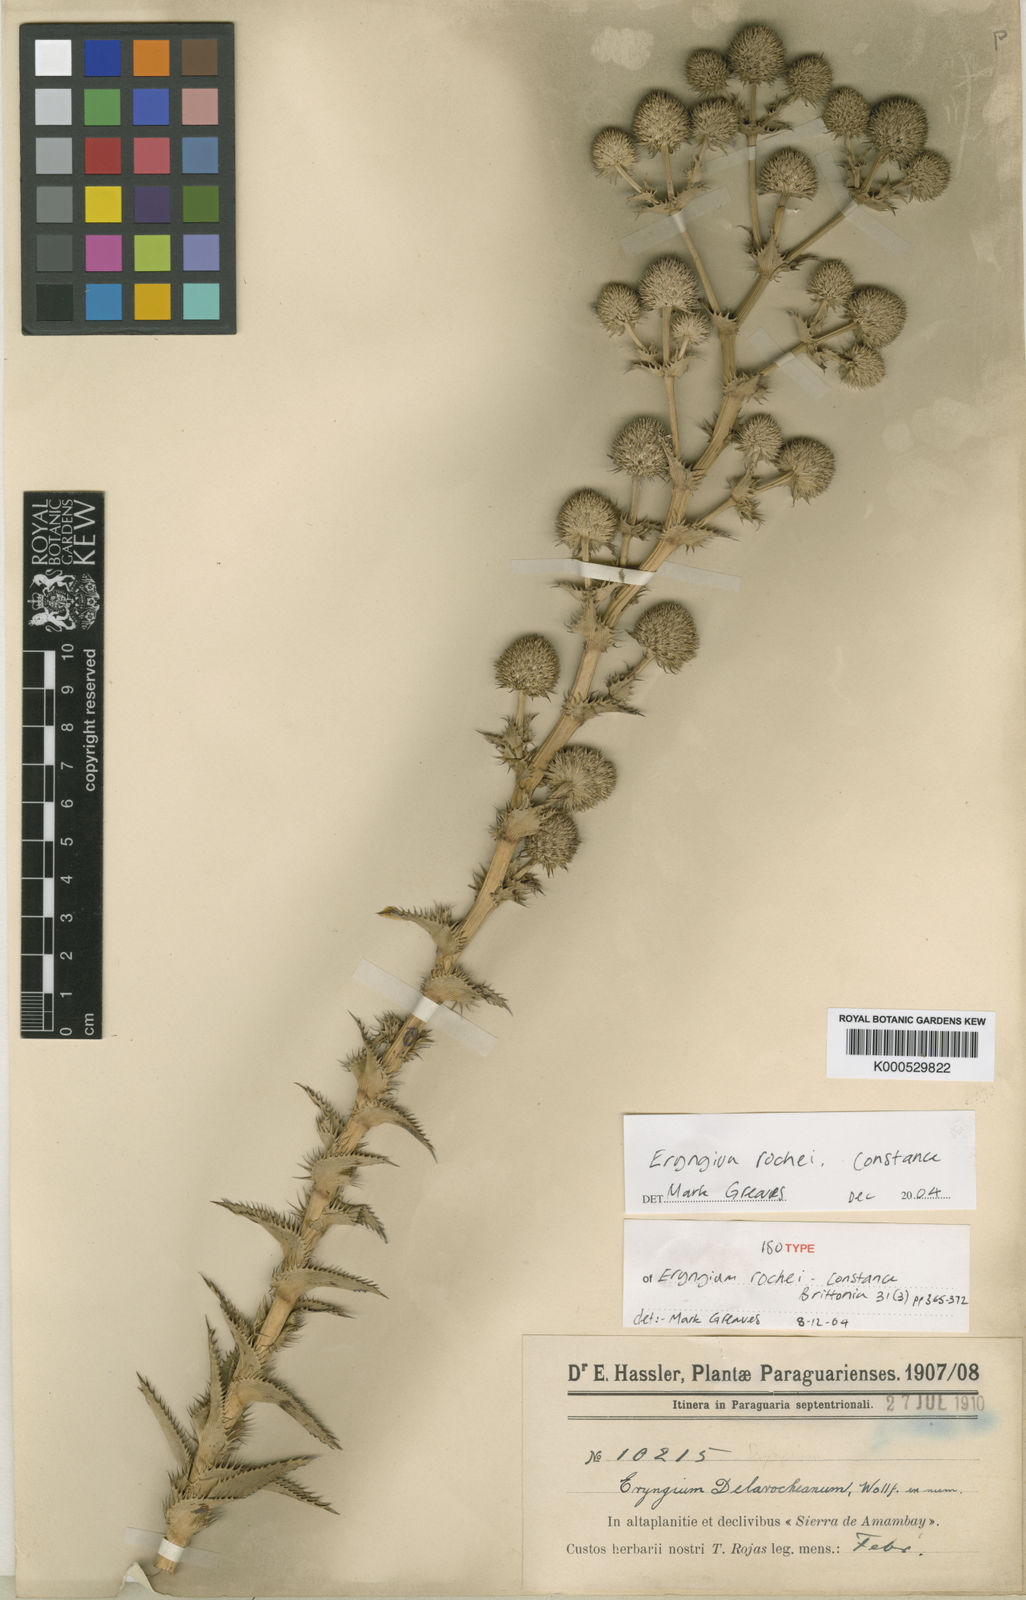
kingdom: Plantae
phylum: Tracheophyta
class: Magnoliopsida
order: Apiales
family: Apiaceae
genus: Eryngium
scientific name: Eryngium rochei
